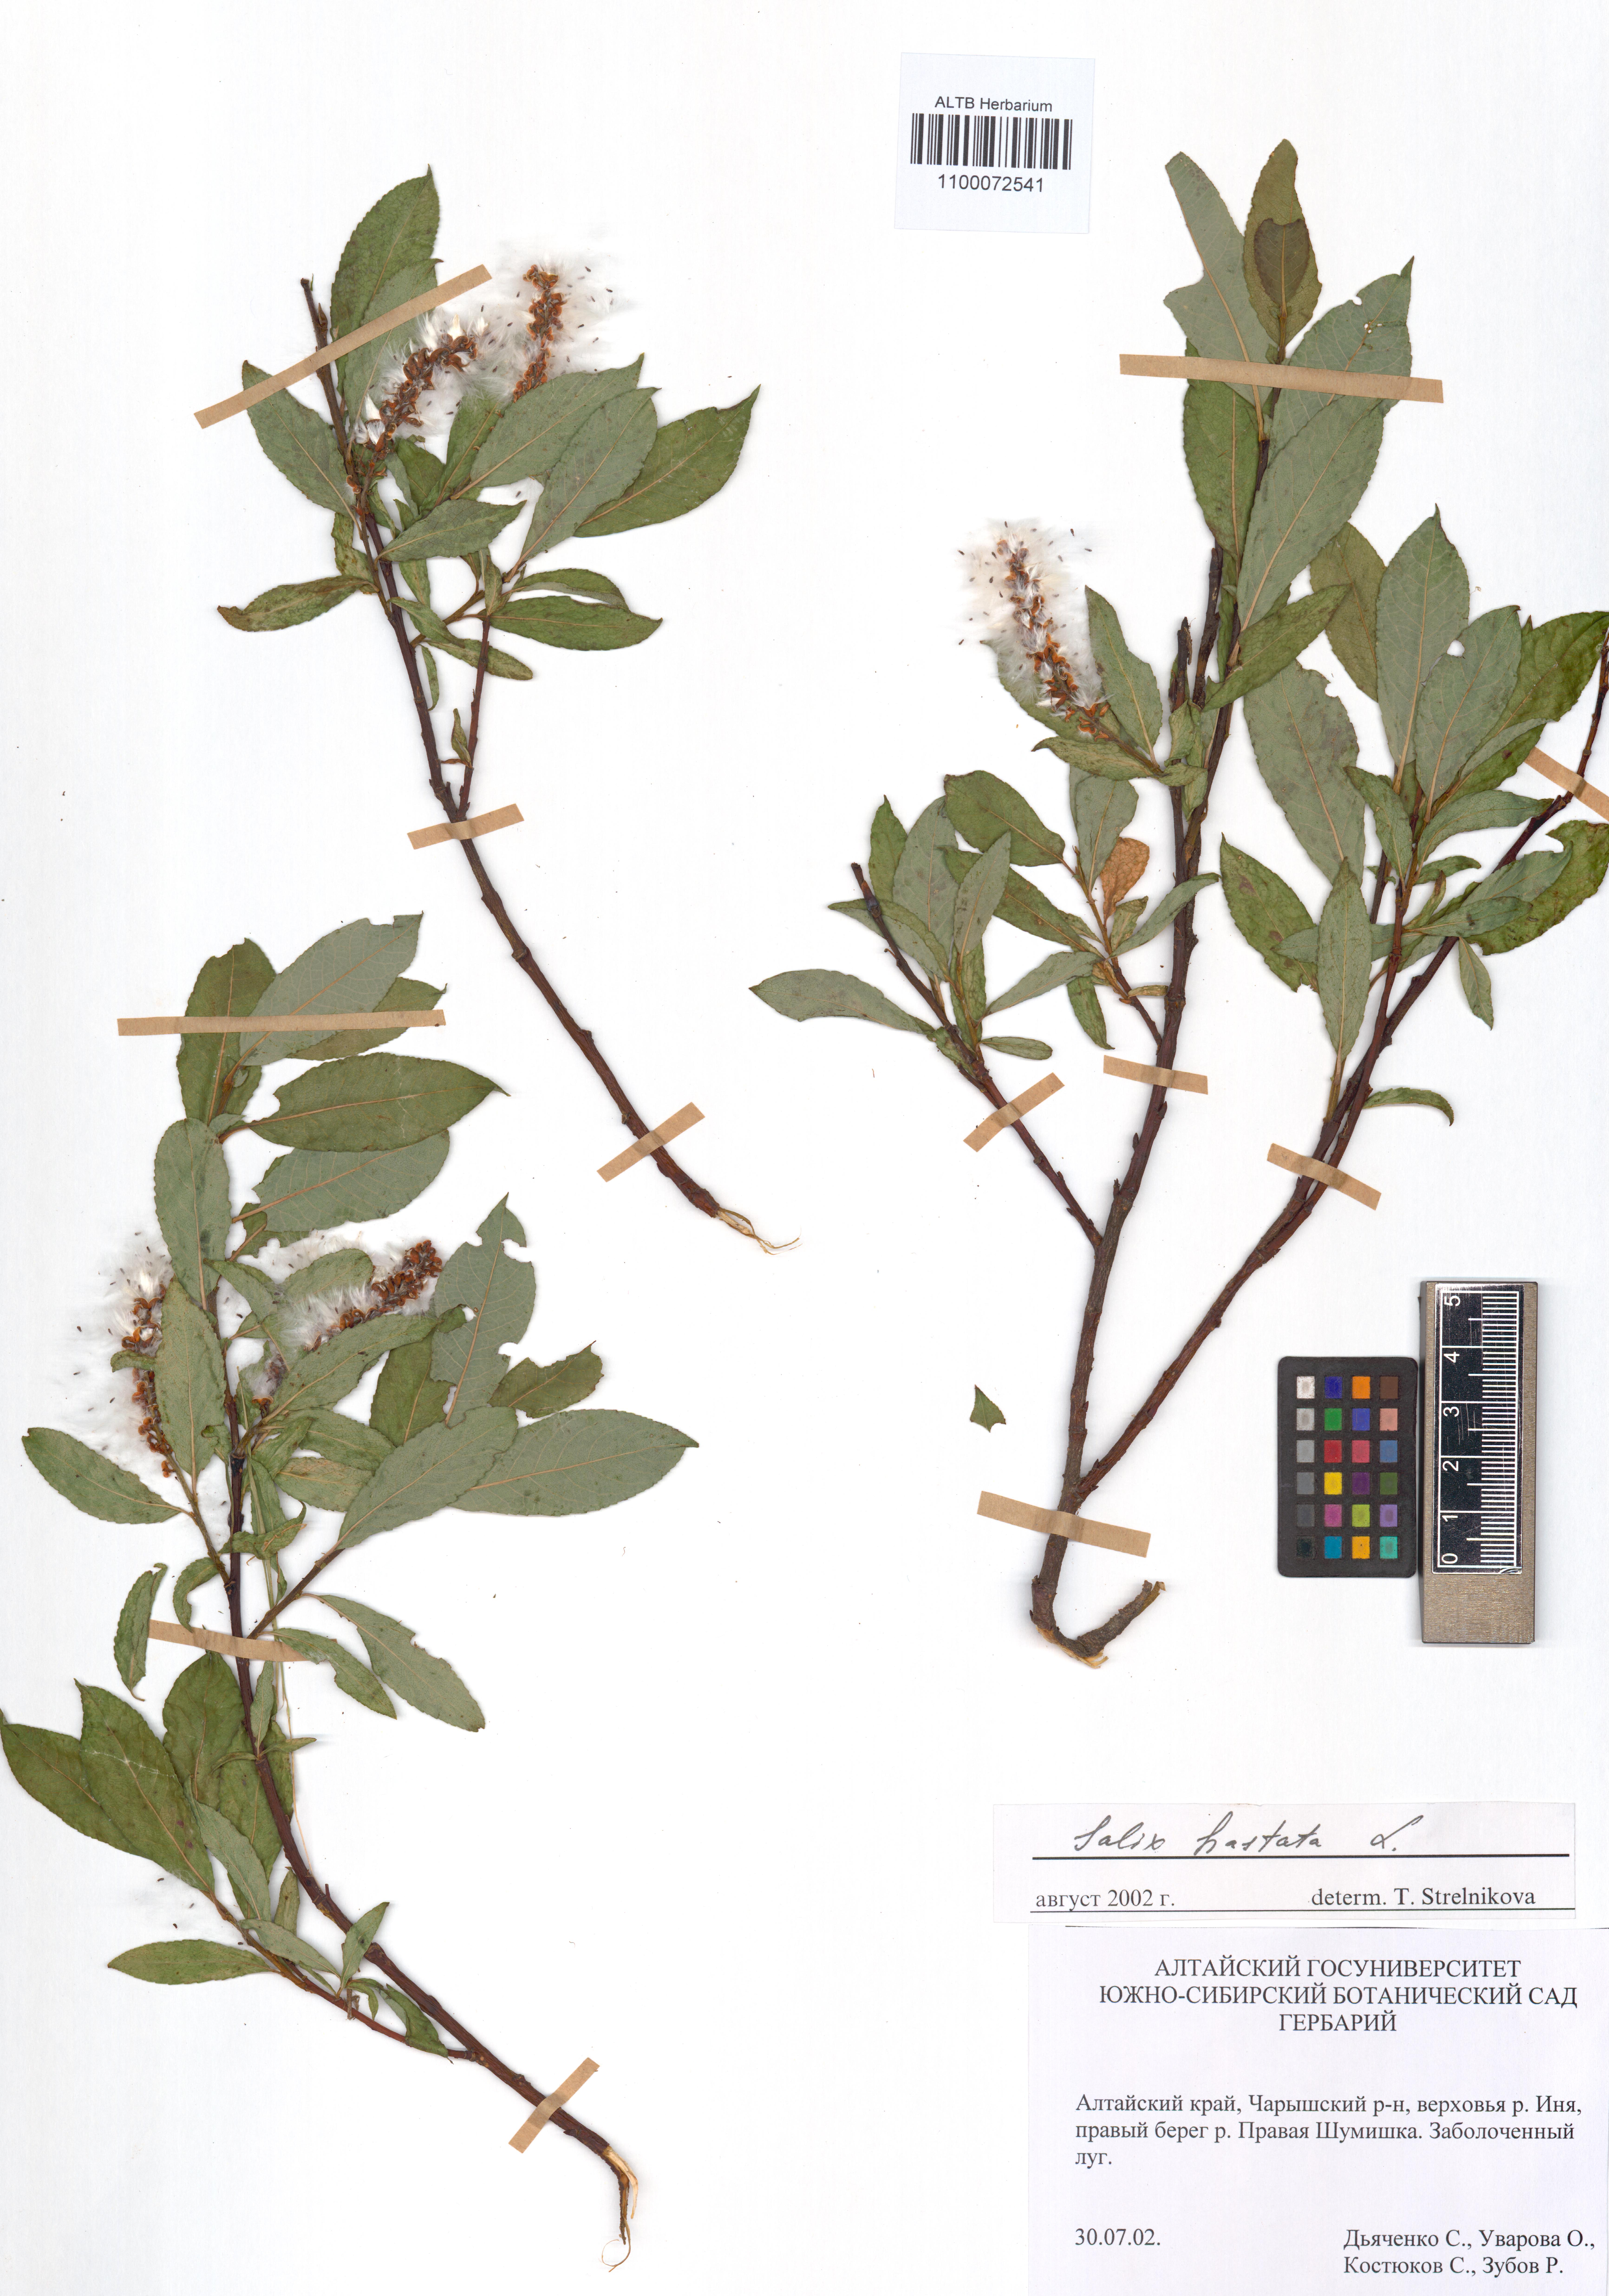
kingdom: Plantae
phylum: Tracheophyta
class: Magnoliopsida
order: Malpighiales
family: Salicaceae
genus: Salix
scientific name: Salix hastata
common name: Halberd willow
